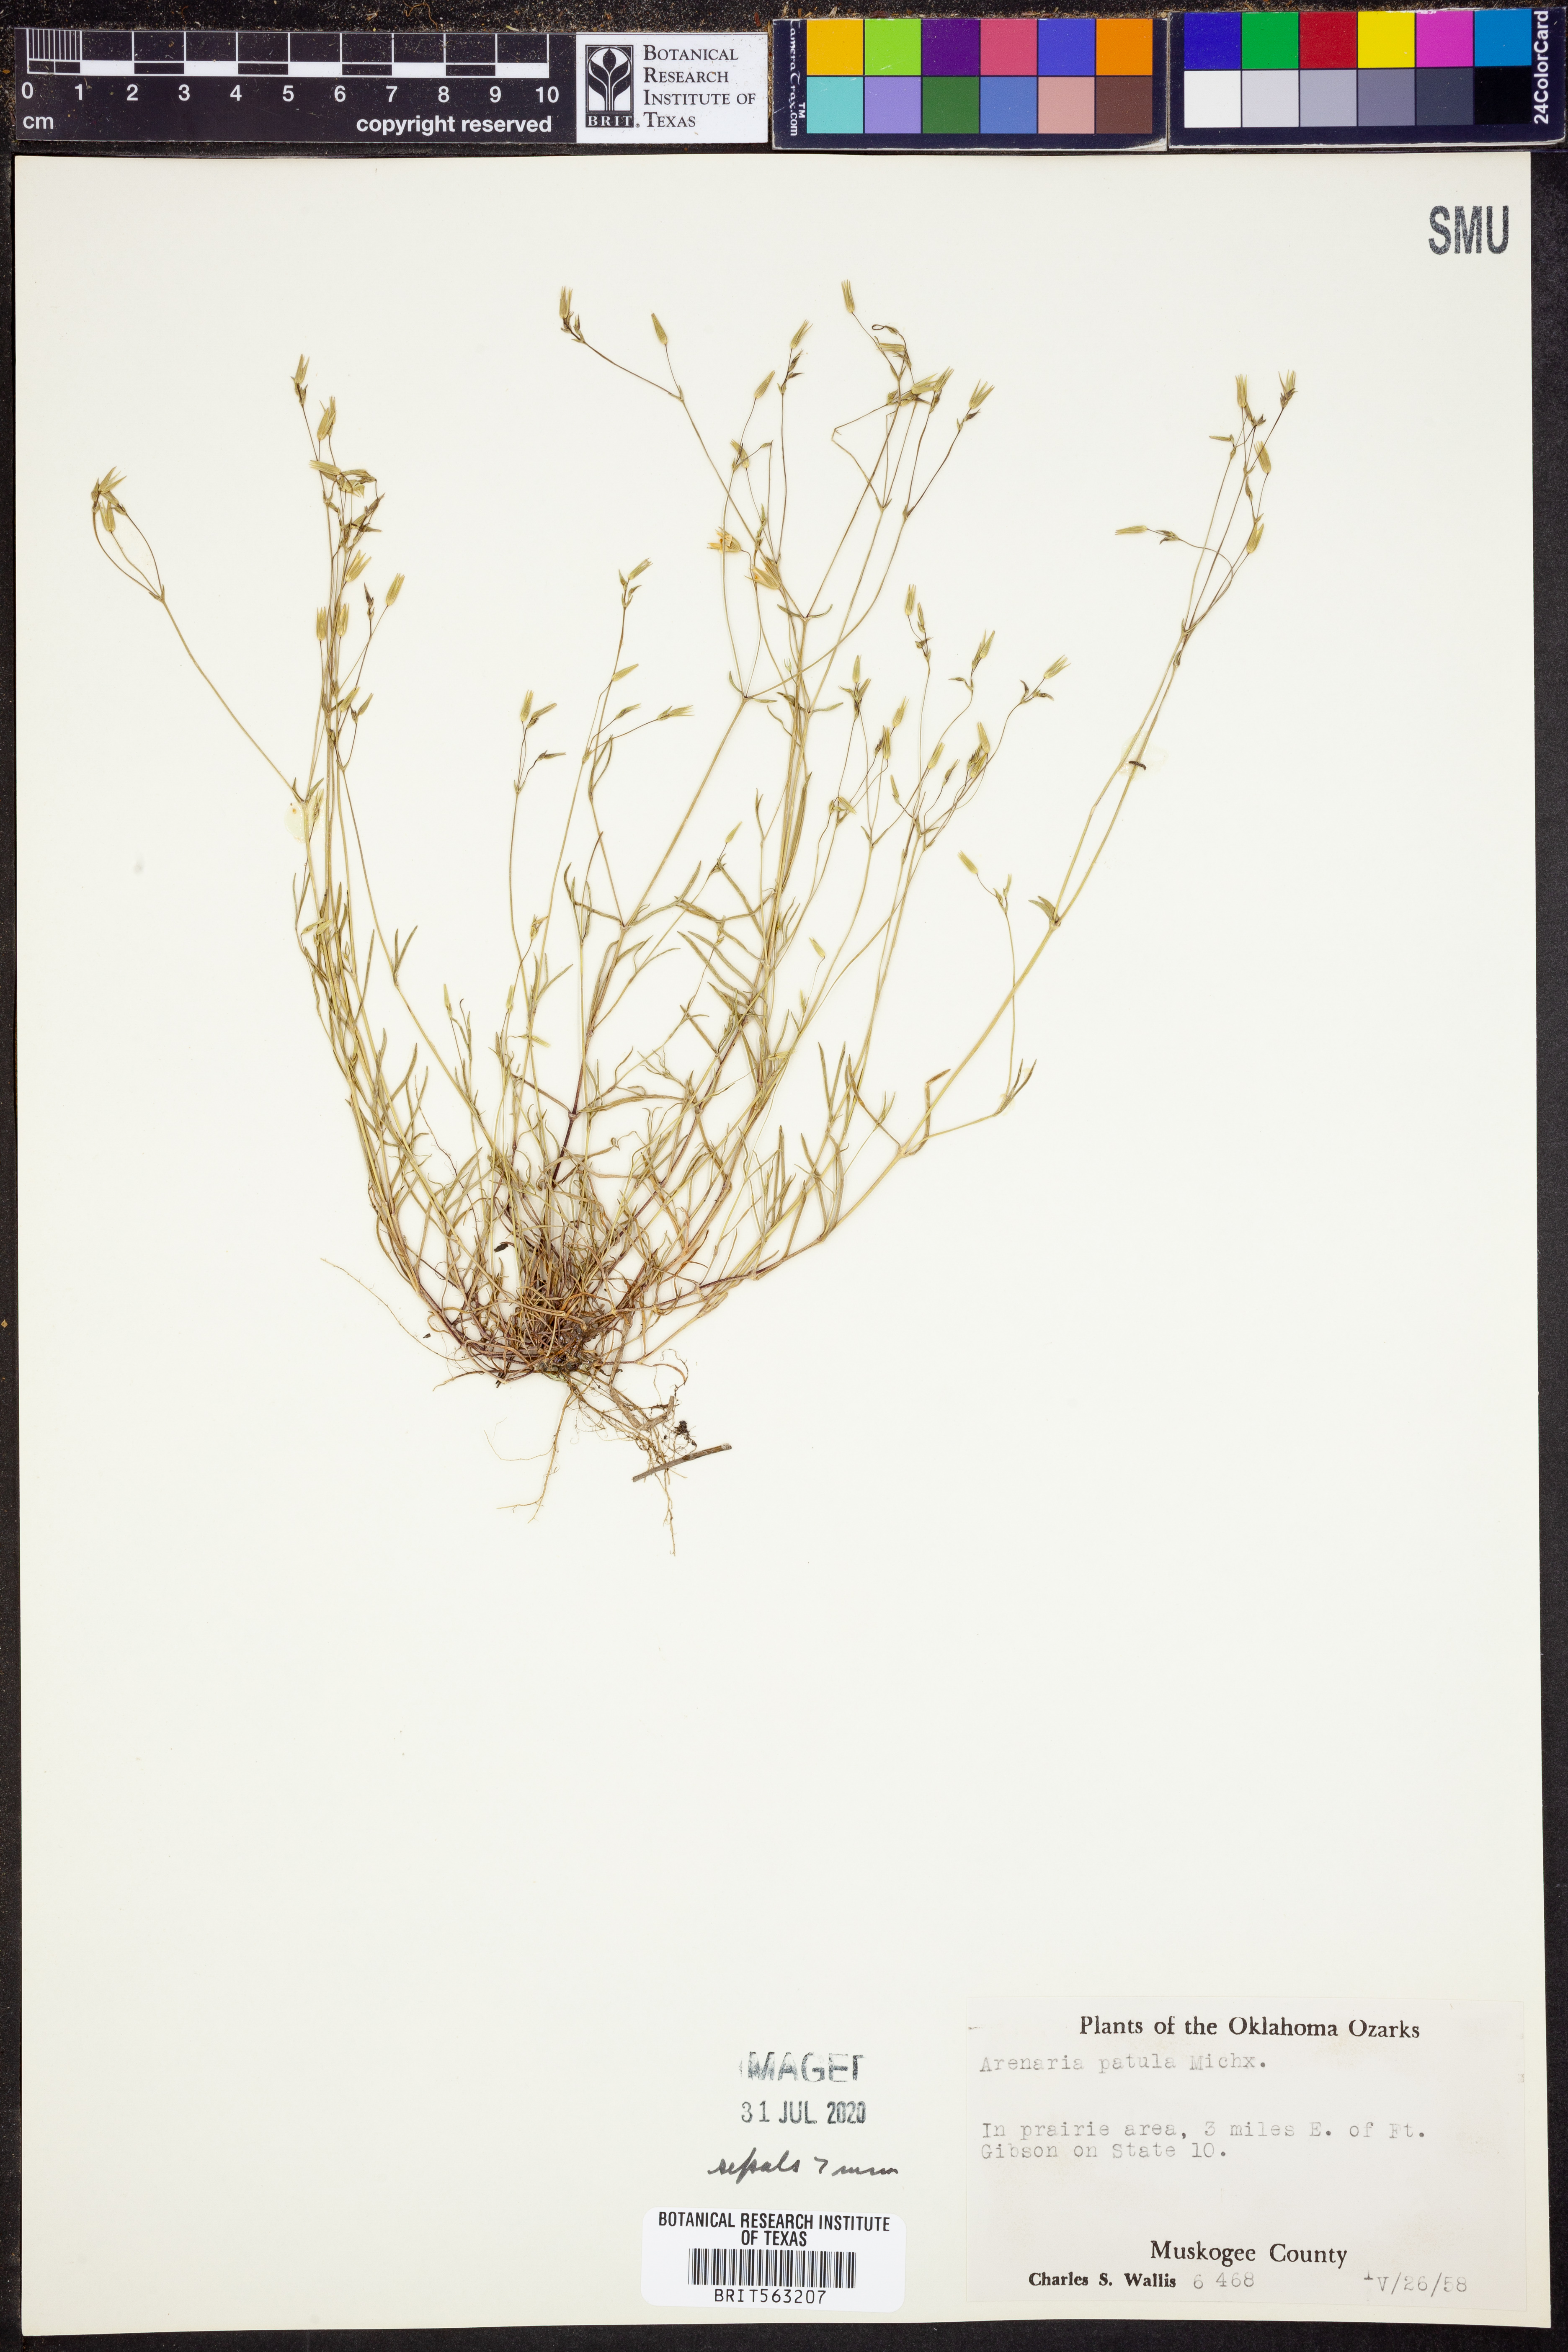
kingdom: Plantae
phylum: Tracheophyta
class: Magnoliopsida
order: Caryophyllales
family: Caryophyllaceae
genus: Mononeuria
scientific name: Mononeuria patula
